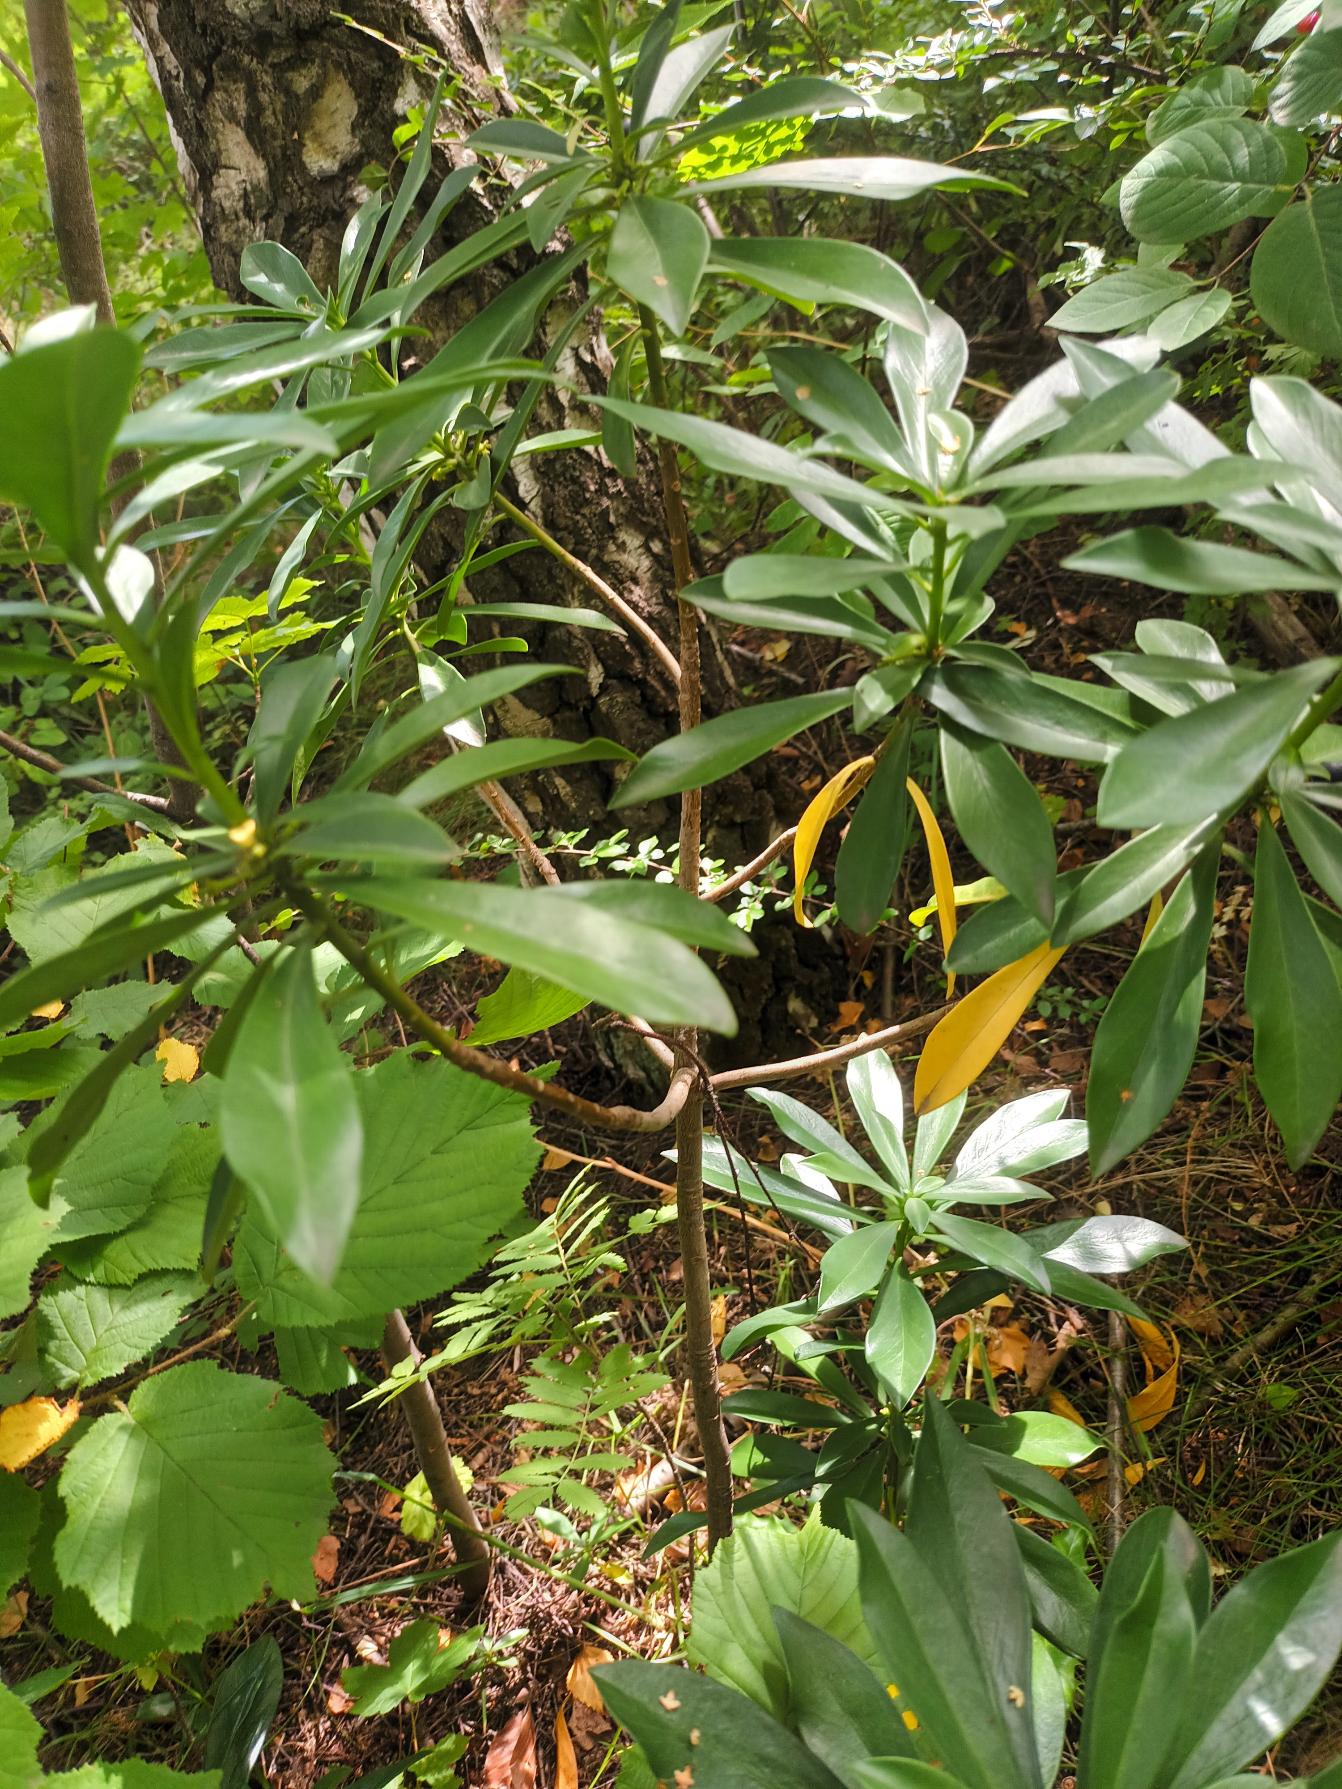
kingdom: Plantae
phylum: Tracheophyta
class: Magnoliopsida
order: Malvales
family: Thymelaeaceae
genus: Daphne
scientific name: Daphne laureola
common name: Laurbær-dafne
